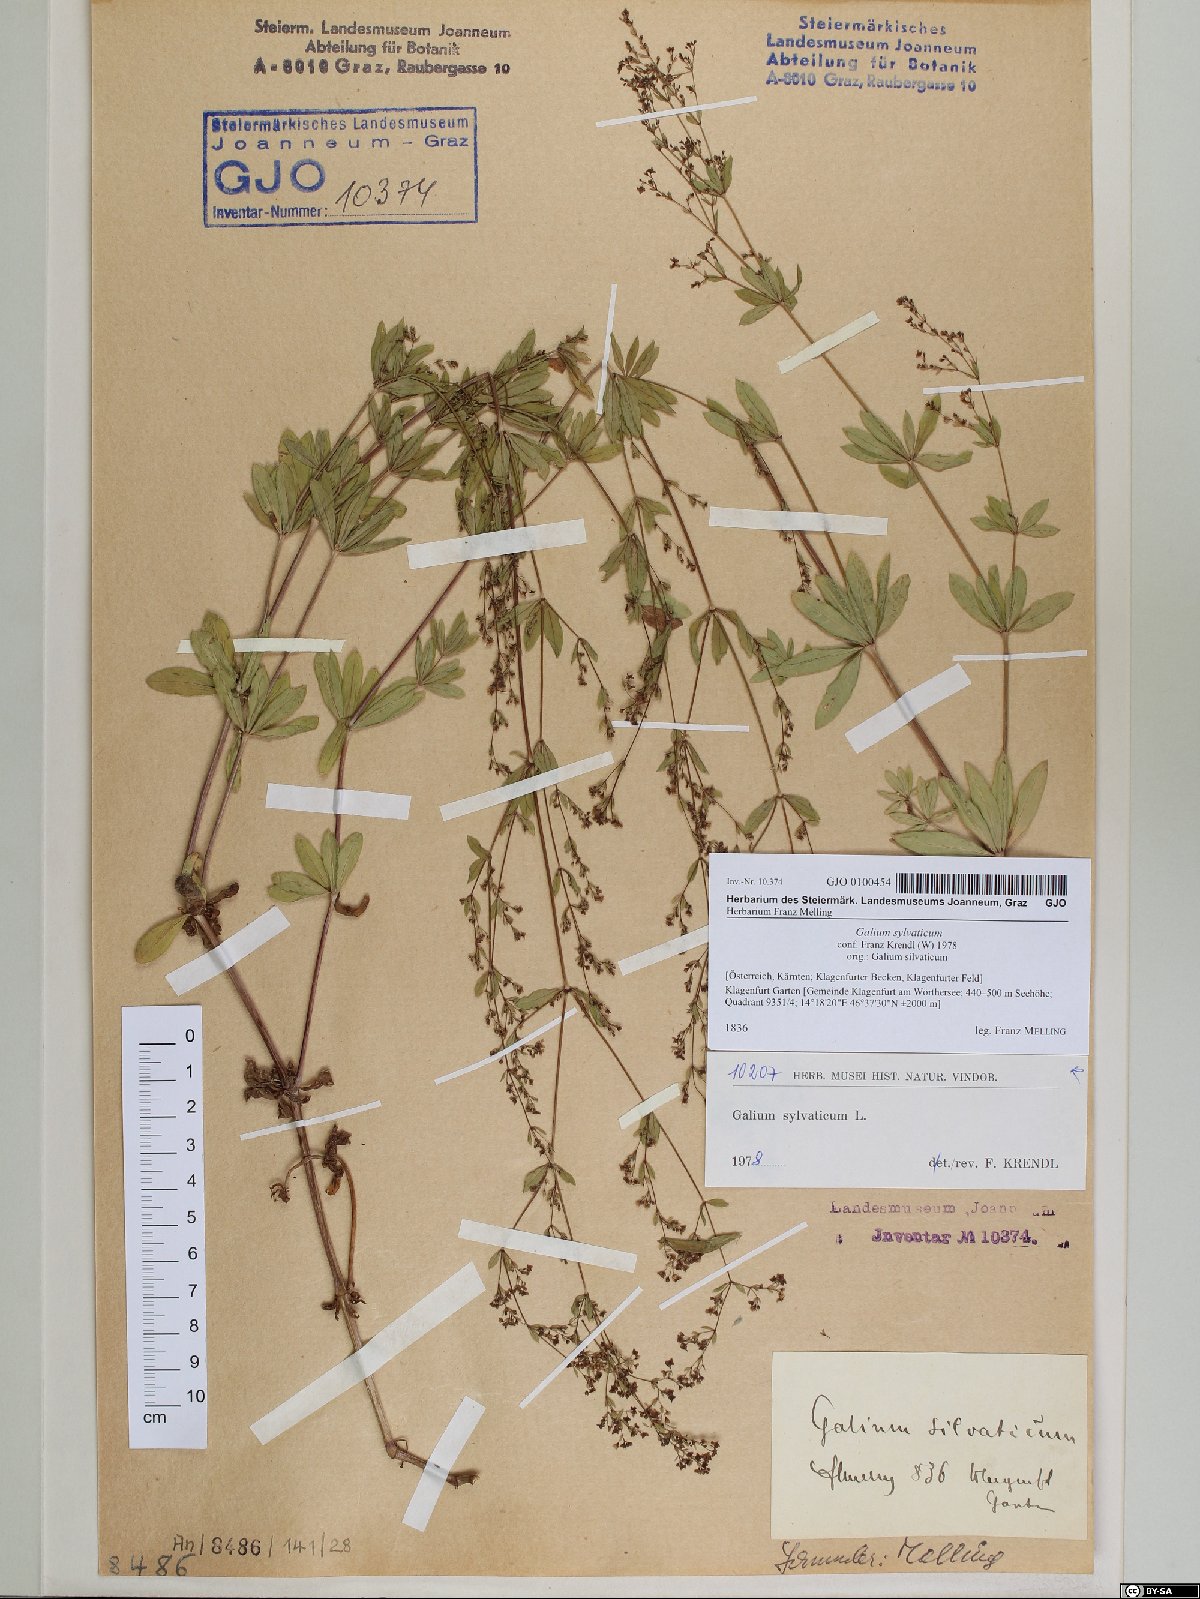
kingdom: Plantae
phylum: Tracheophyta
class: Magnoliopsida
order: Gentianales
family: Rubiaceae
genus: Galium
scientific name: Galium sylvaticum
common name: Wood bedstraw
